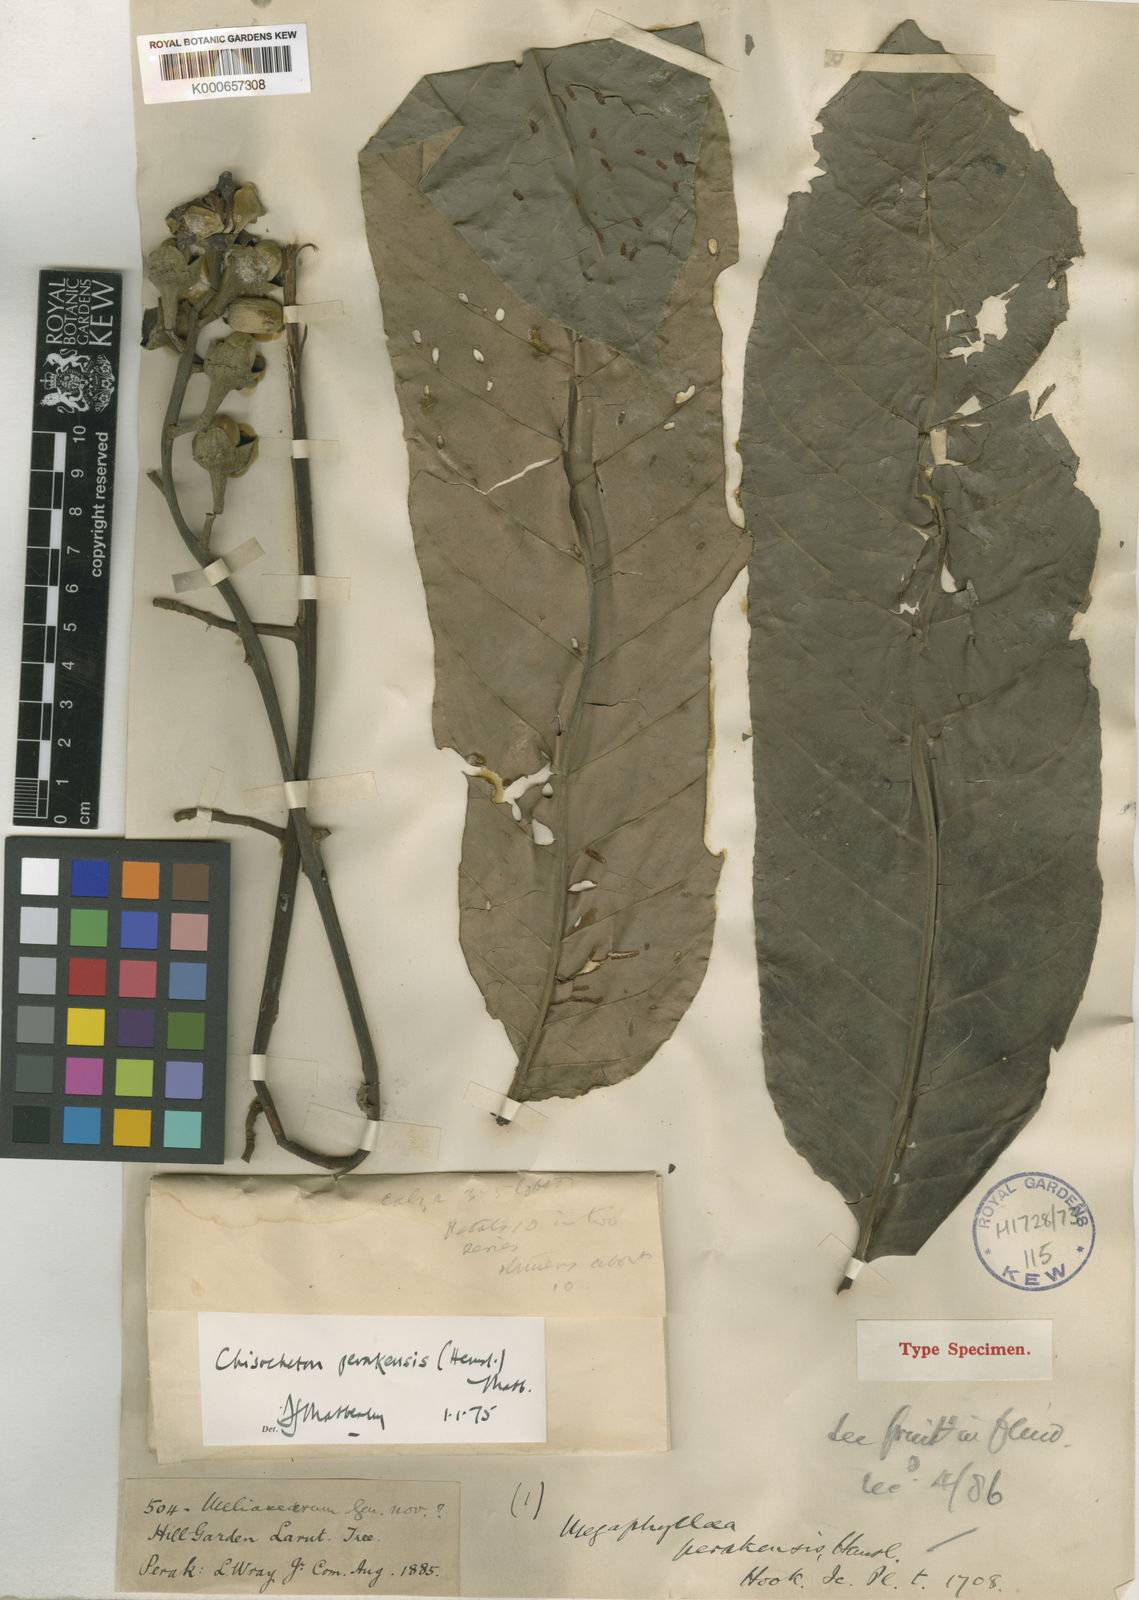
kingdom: Plantae
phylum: Tracheophyta
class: Magnoliopsida
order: Sapindales
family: Meliaceae
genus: Chisocheton
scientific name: Chisocheton perakensis
